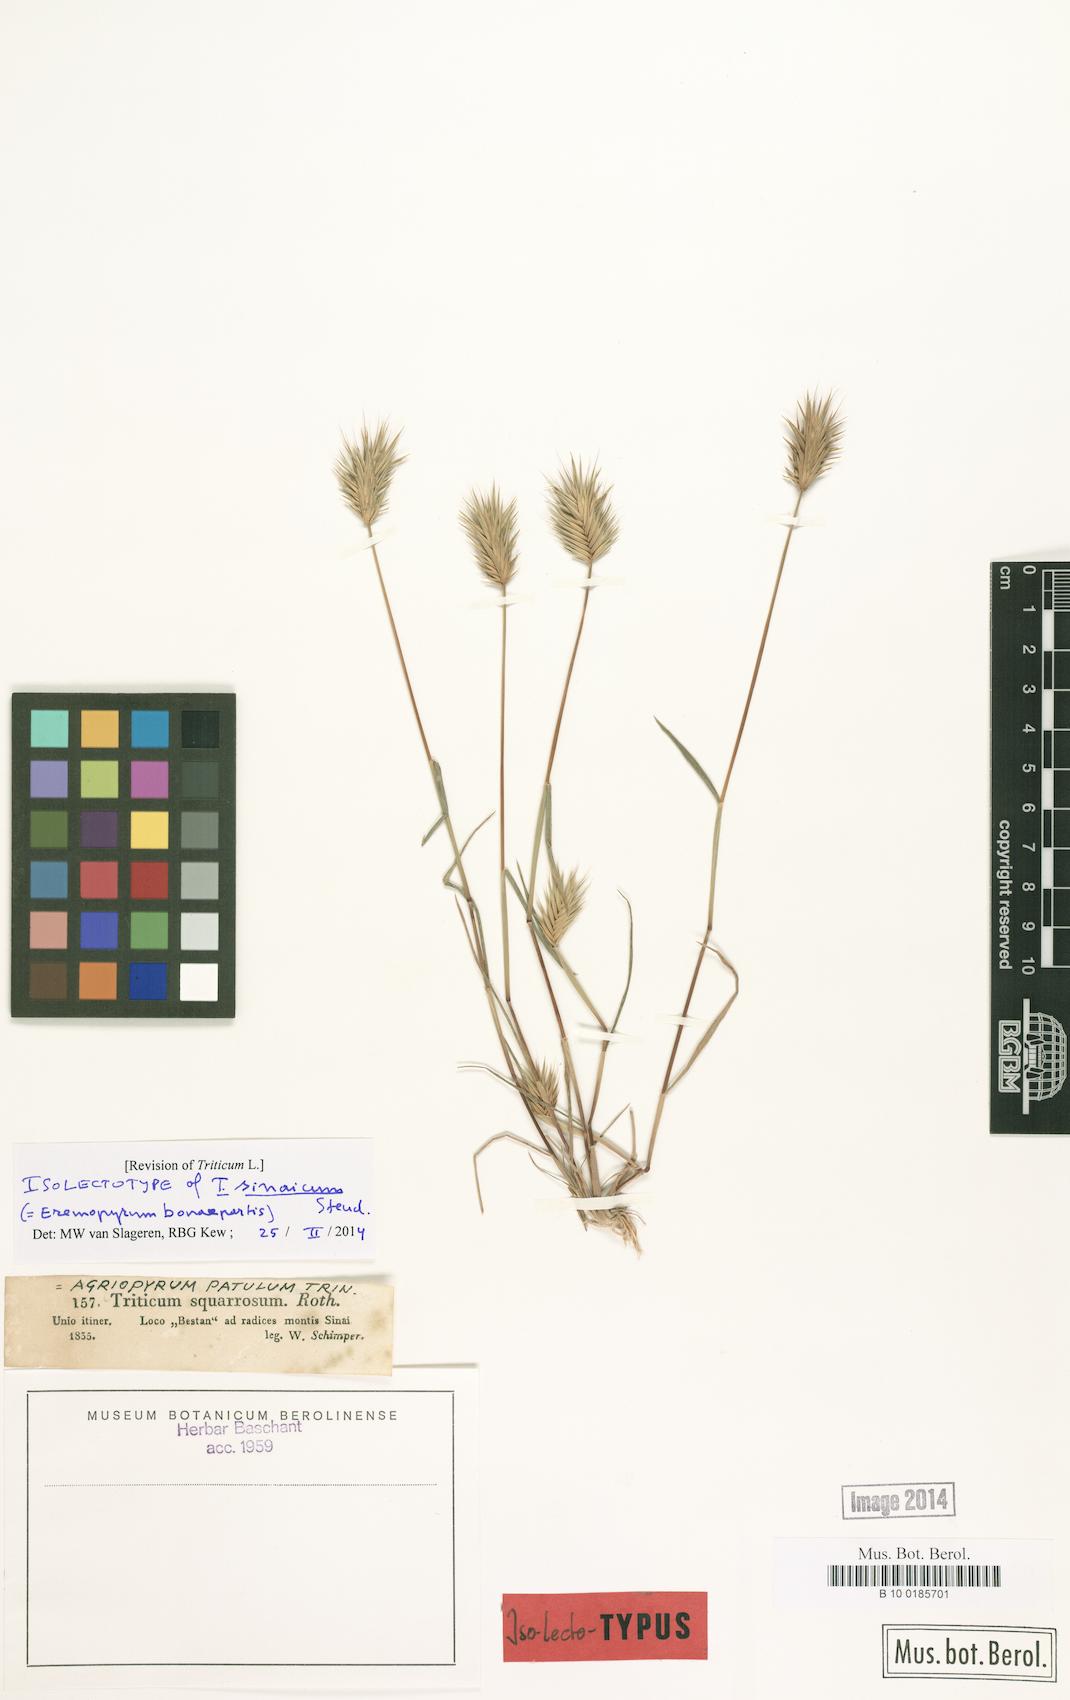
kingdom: Plantae
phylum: Tracheophyta
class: Liliopsida
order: Poales
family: Poaceae
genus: Eremopyrum
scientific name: Eremopyrum bonaepartis
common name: Tapertip false wheatgrass
